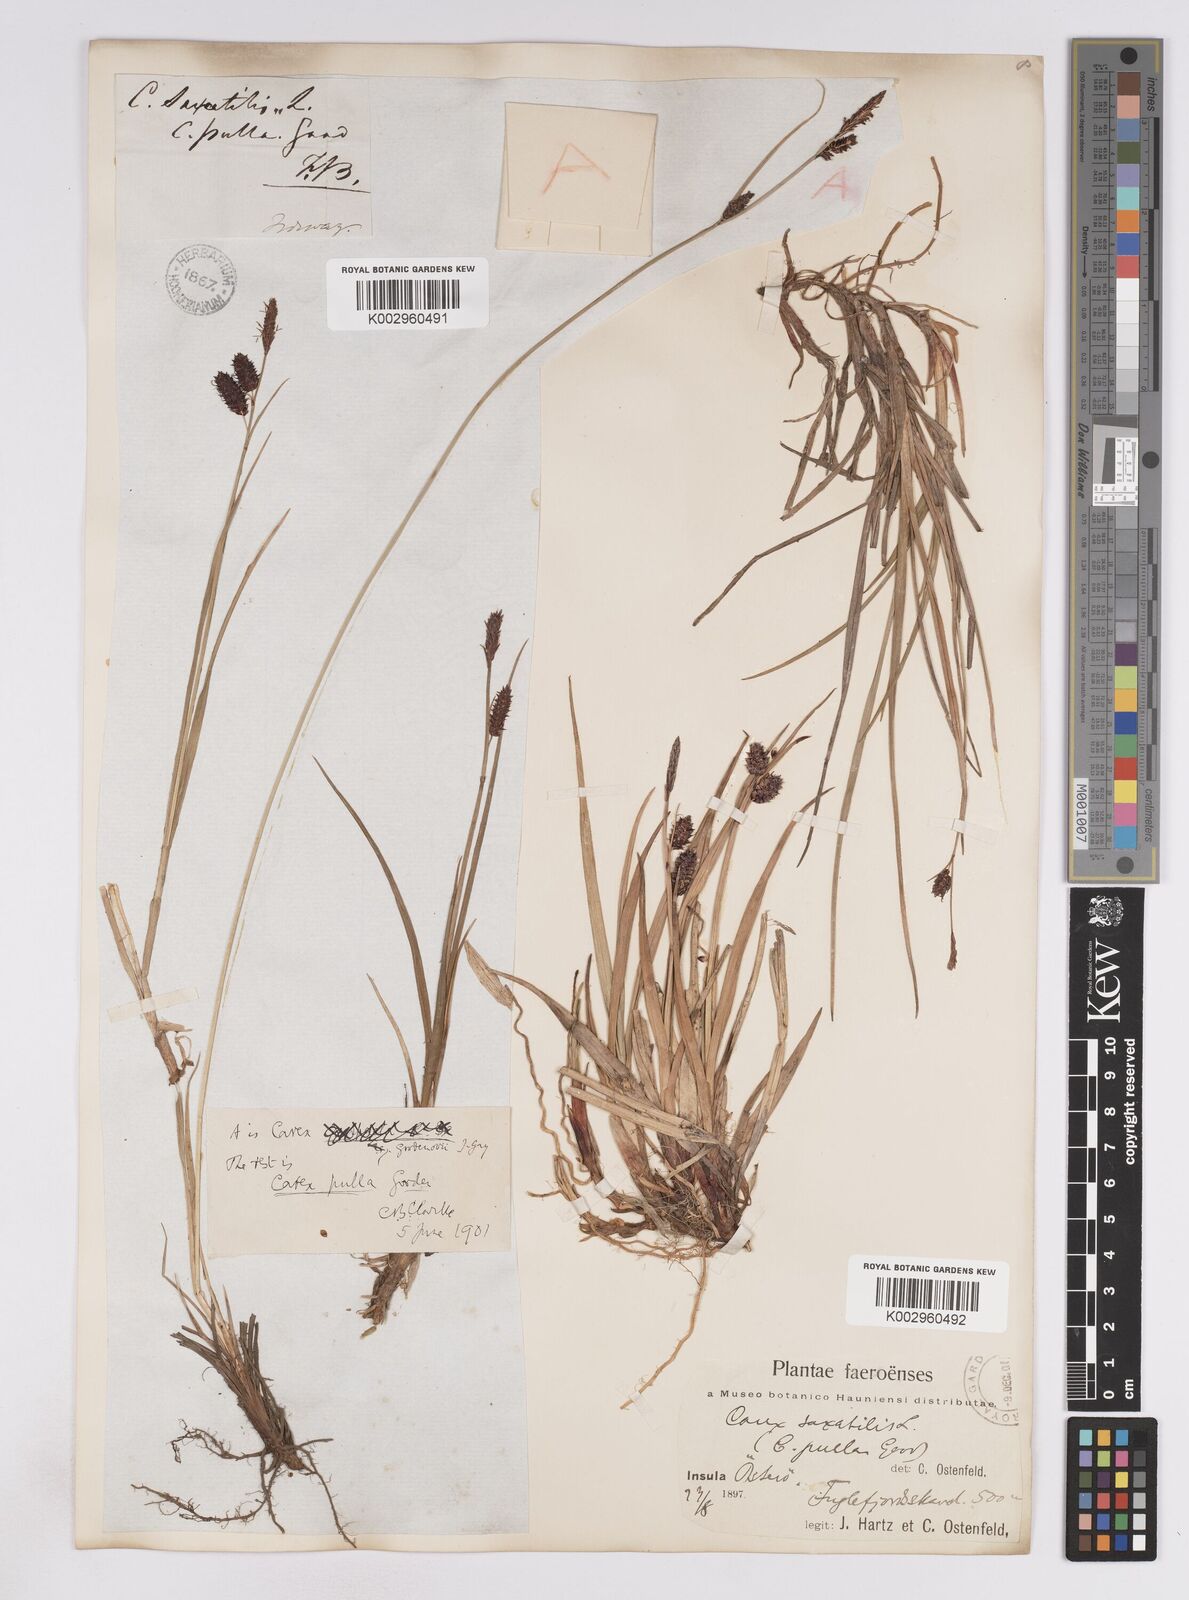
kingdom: Plantae
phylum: Tracheophyta
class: Liliopsida
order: Poales
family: Cyperaceae
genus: Carex
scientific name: Carex saxatilis
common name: Russet sedge
